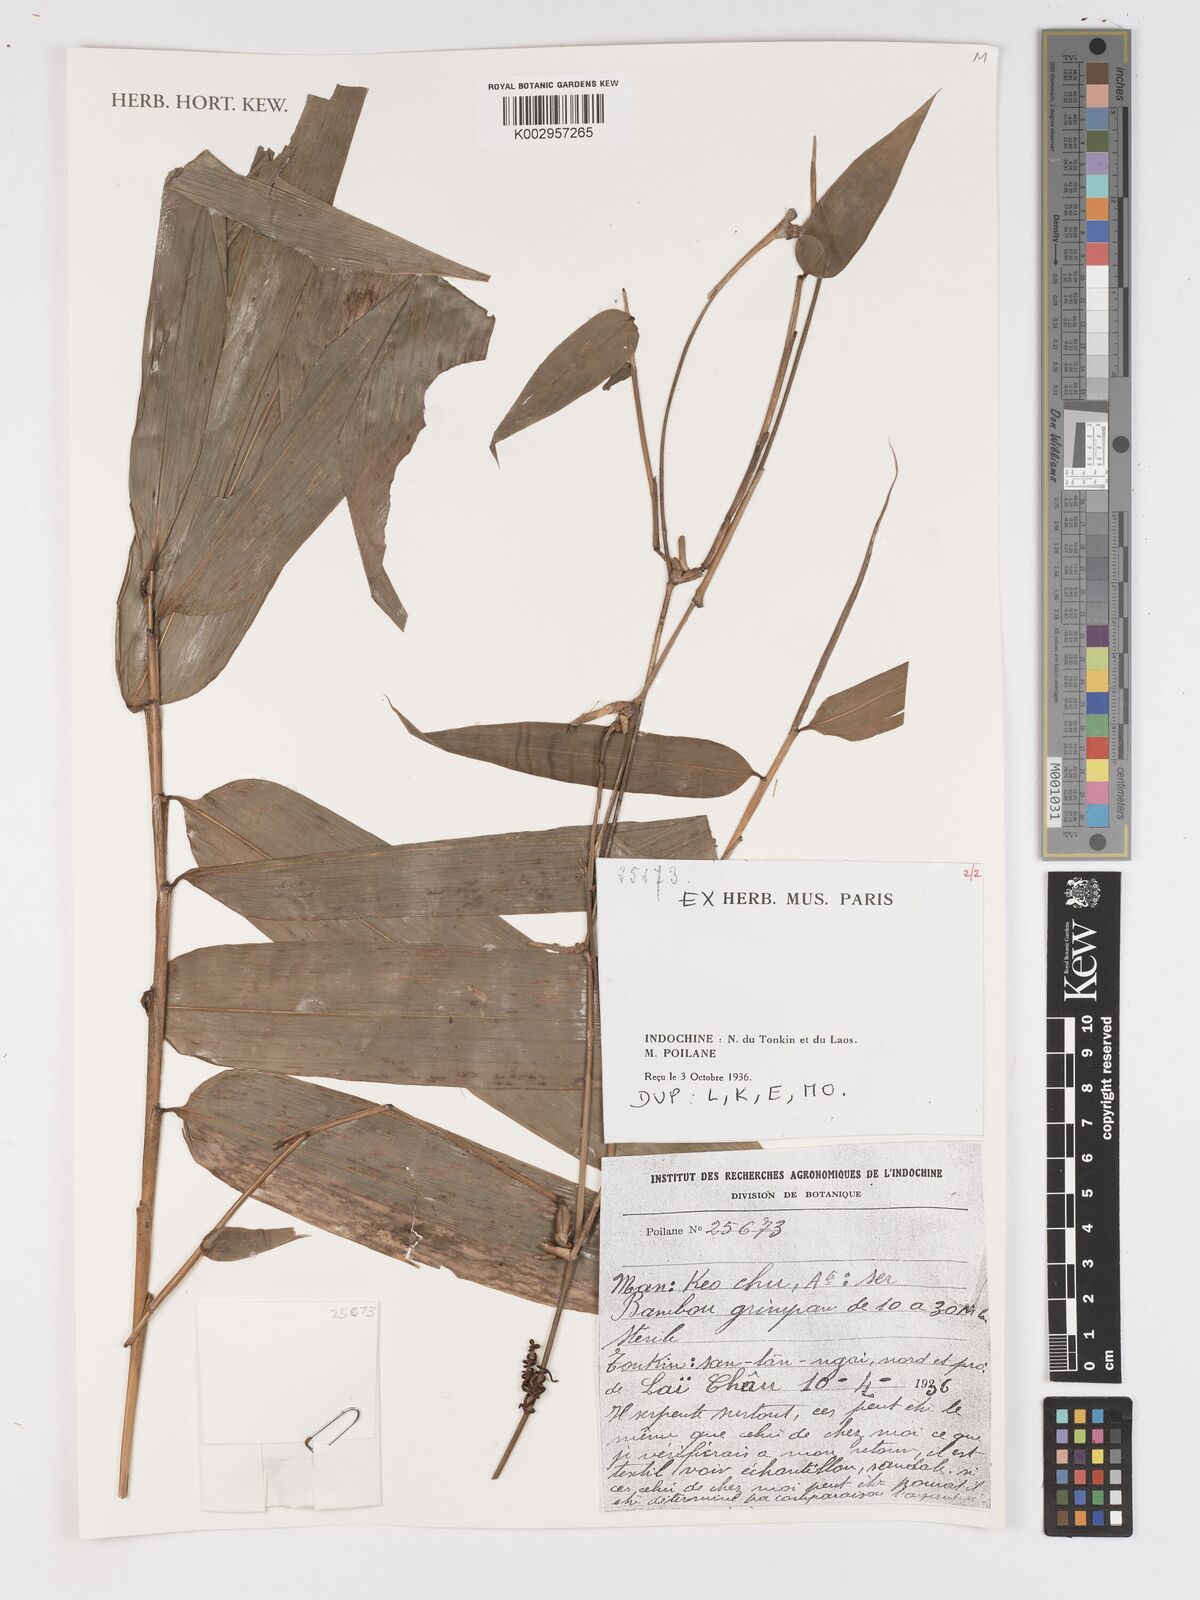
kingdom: Plantae
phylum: Tracheophyta
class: Liliopsida
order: Poales
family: Poaceae
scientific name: Poaceae
